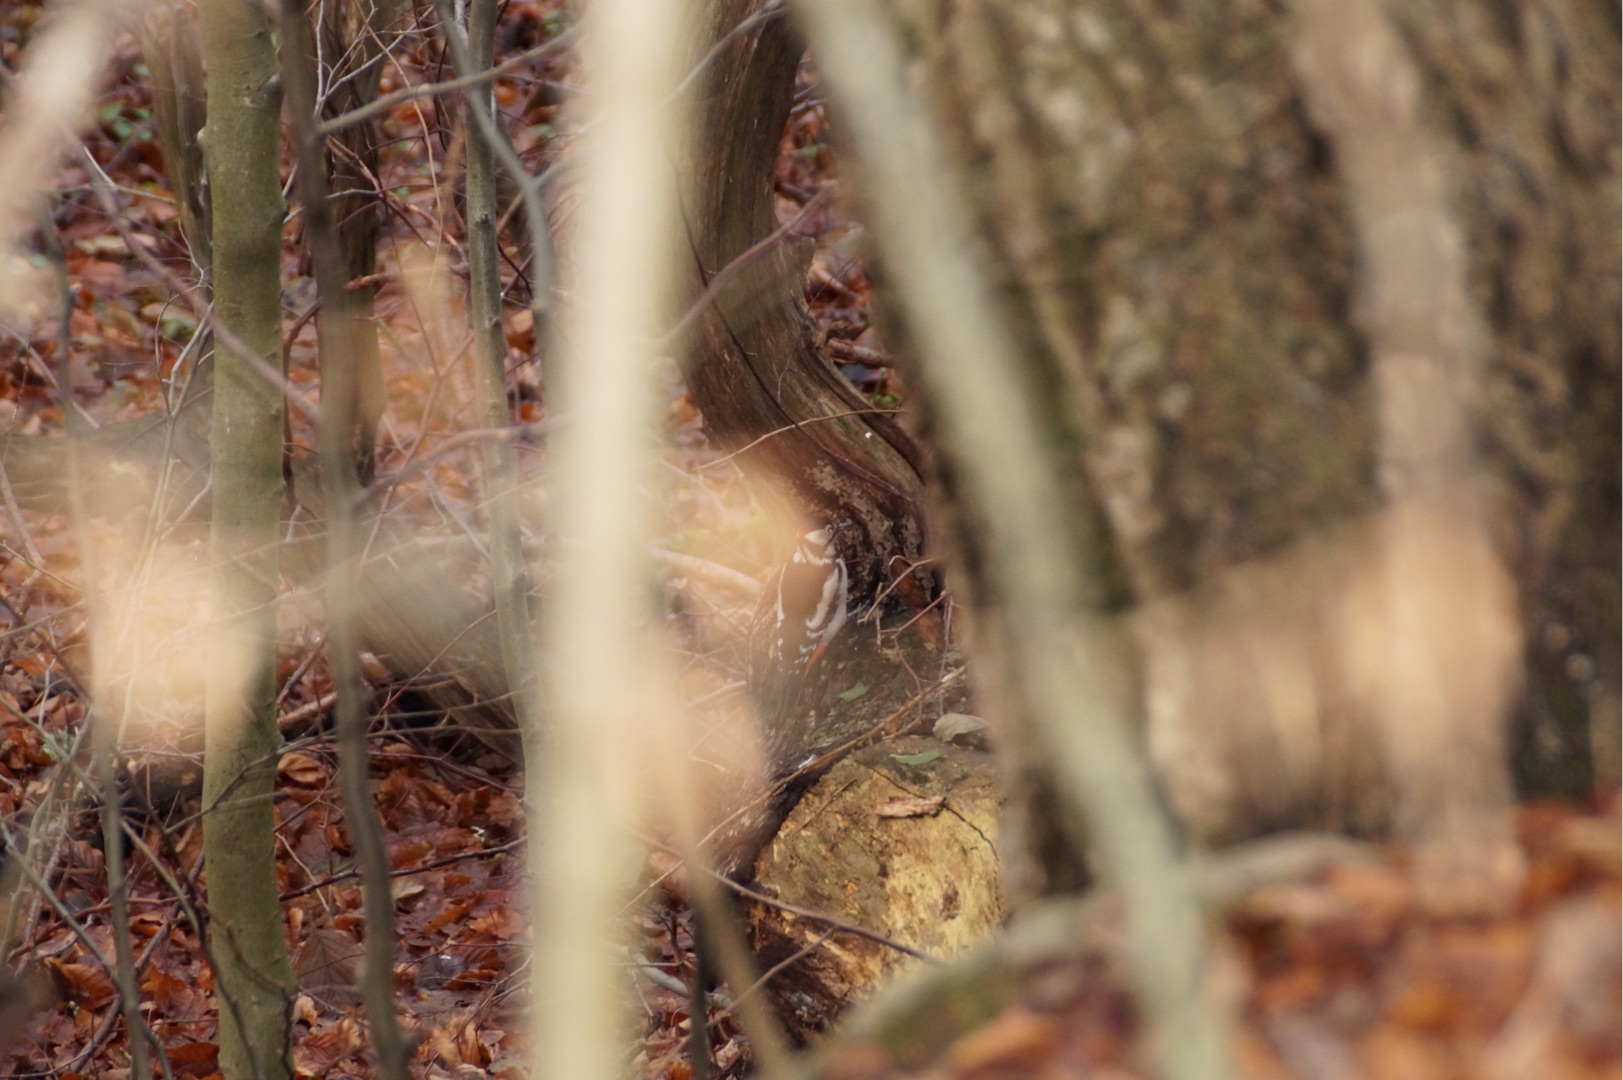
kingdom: Animalia
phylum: Chordata
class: Aves
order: Piciformes
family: Picidae
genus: Dendrocopos
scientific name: Dendrocopos major
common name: Stor flagspætte
